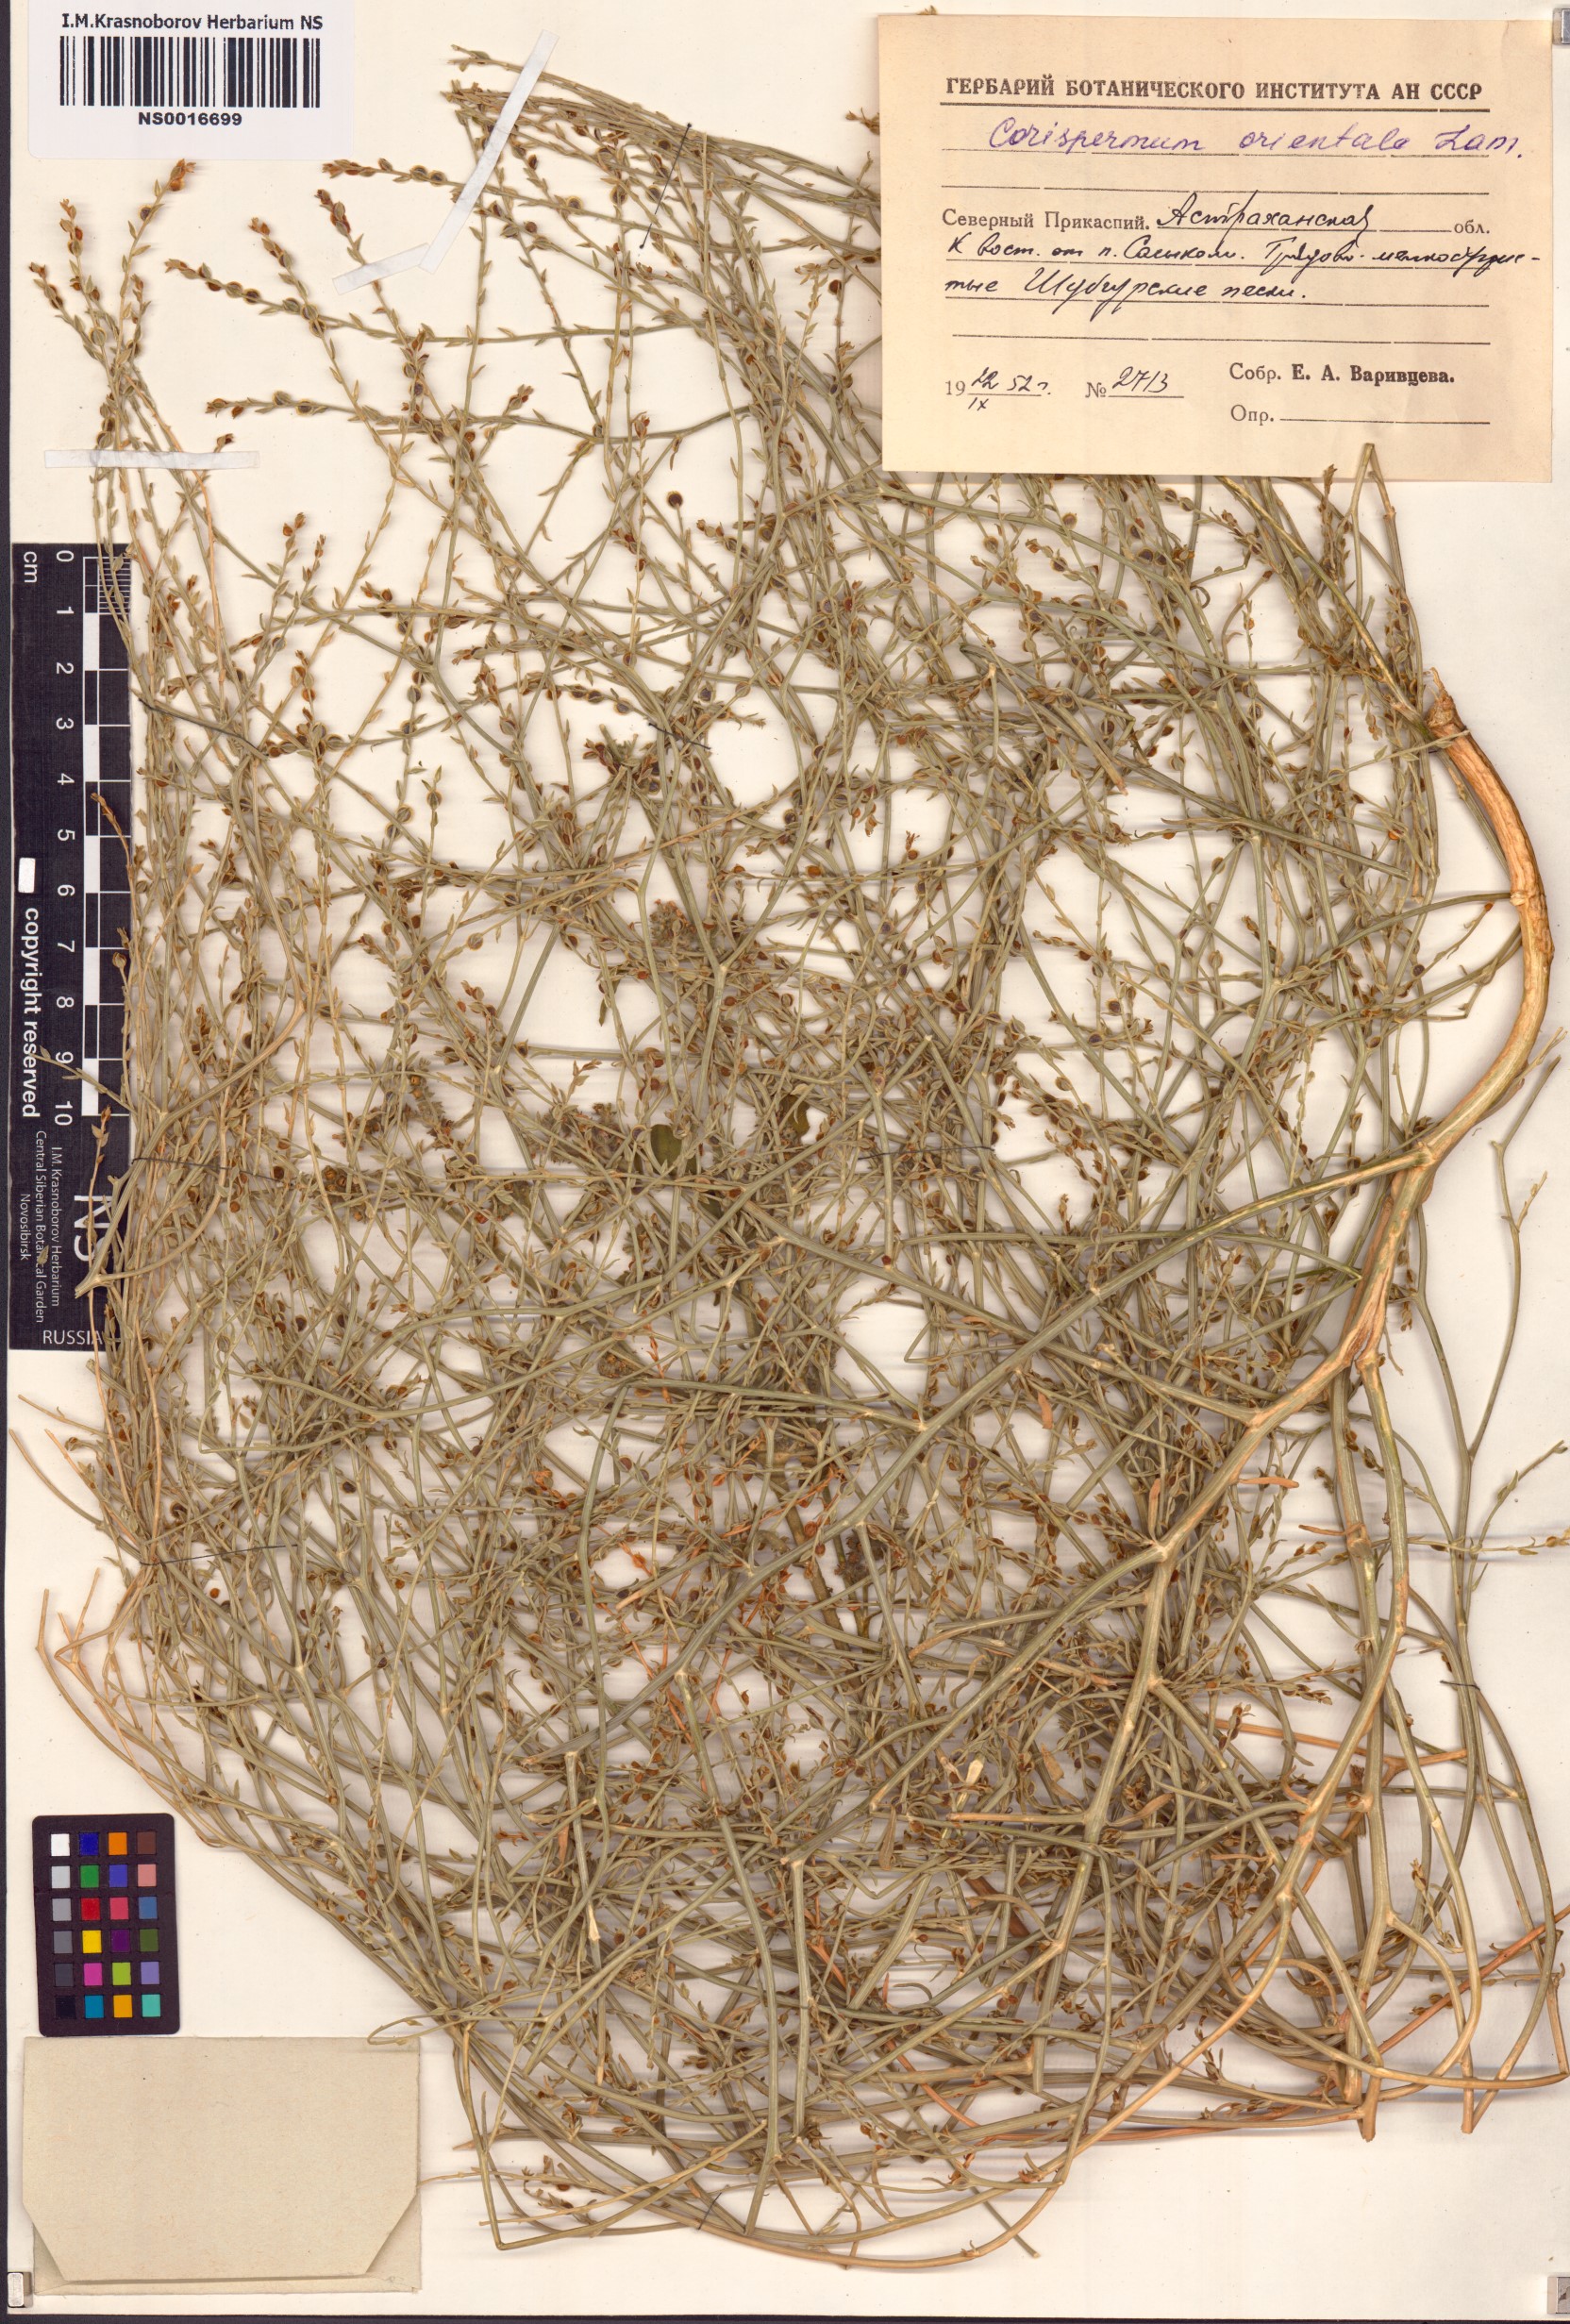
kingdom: Plantae
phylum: Tracheophyta
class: Magnoliopsida
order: Caryophyllales
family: Amaranthaceae
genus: Corispermum
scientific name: Corispermum aralocaspicum
